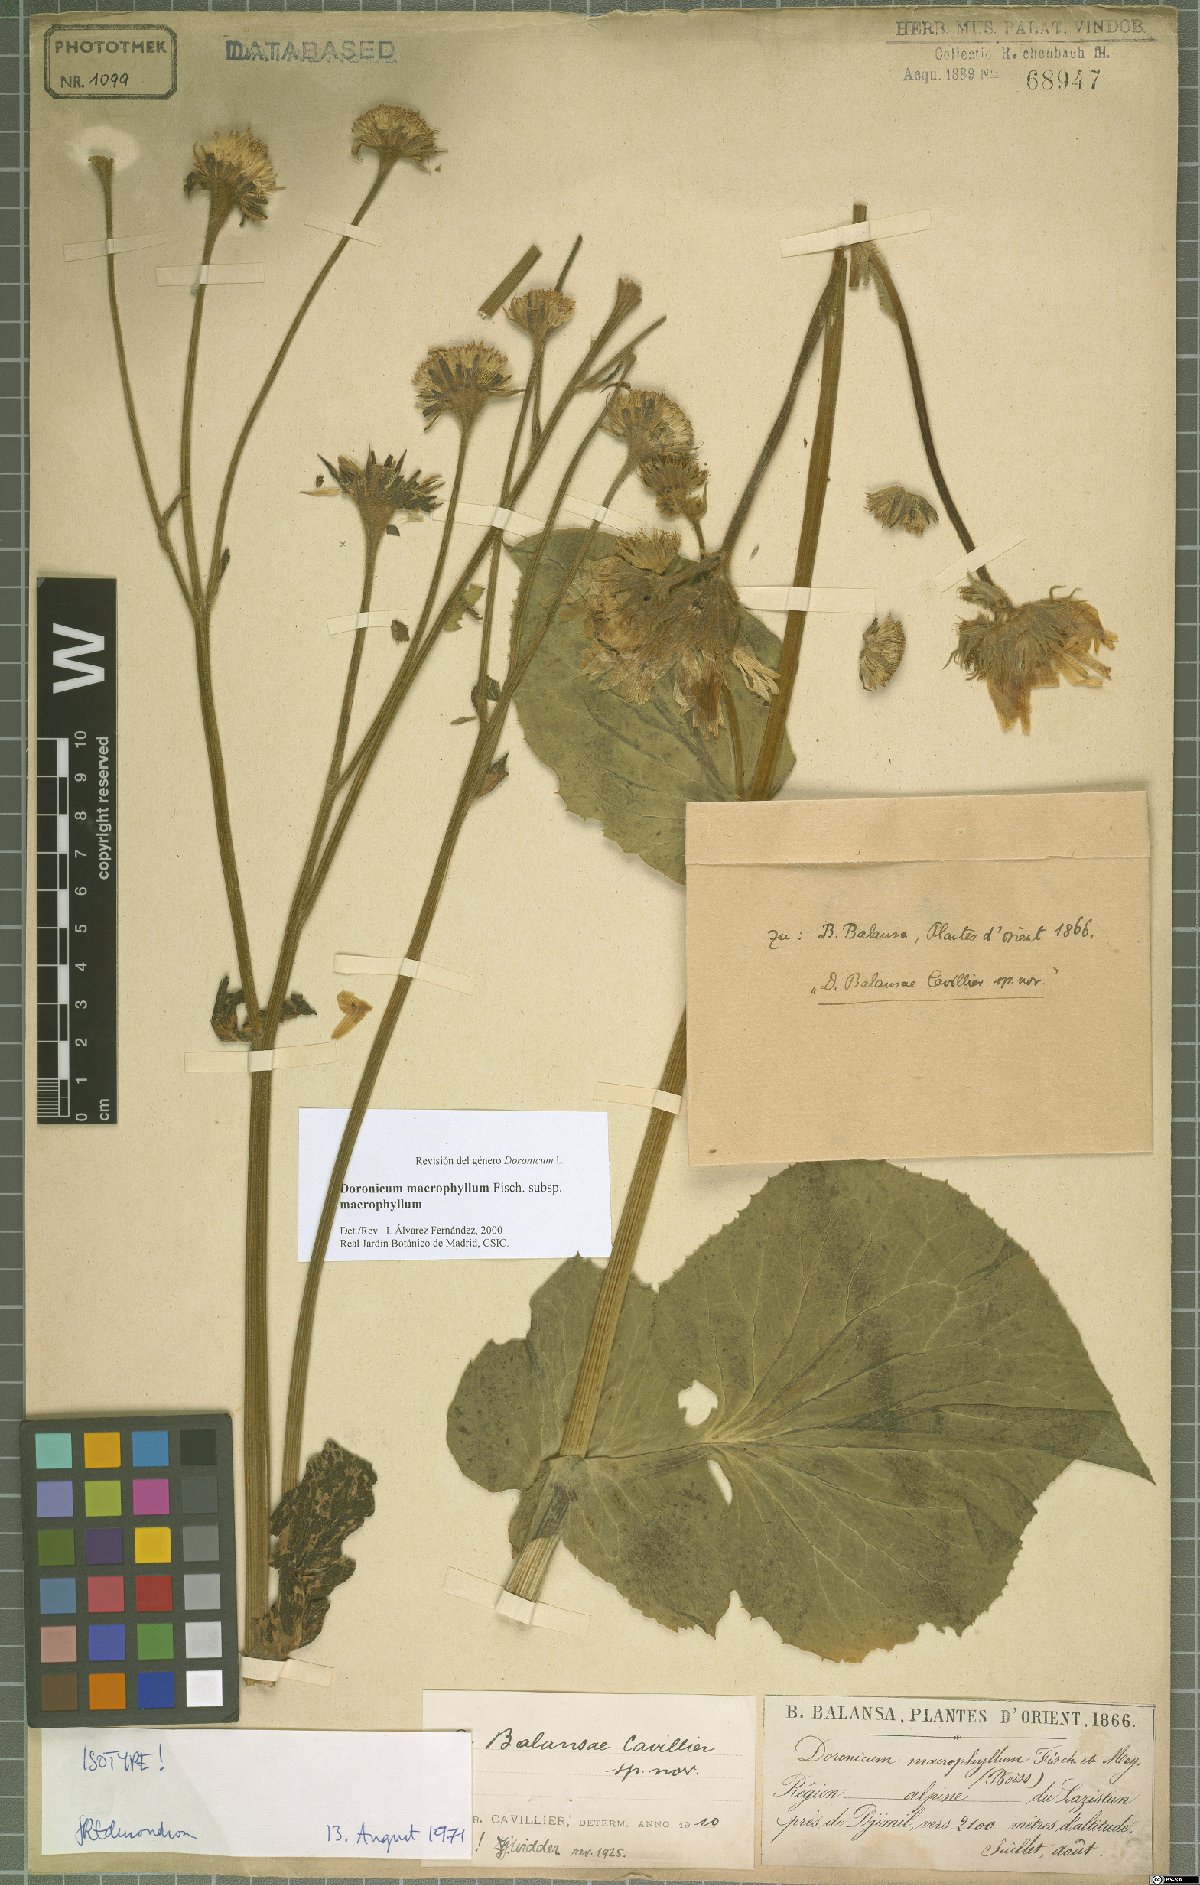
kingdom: Plantae
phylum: Tracheophyta
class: Magnoliopsida
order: Asterales
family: Asteraceae
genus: Doronicum
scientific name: Doronicum macrophyllum
